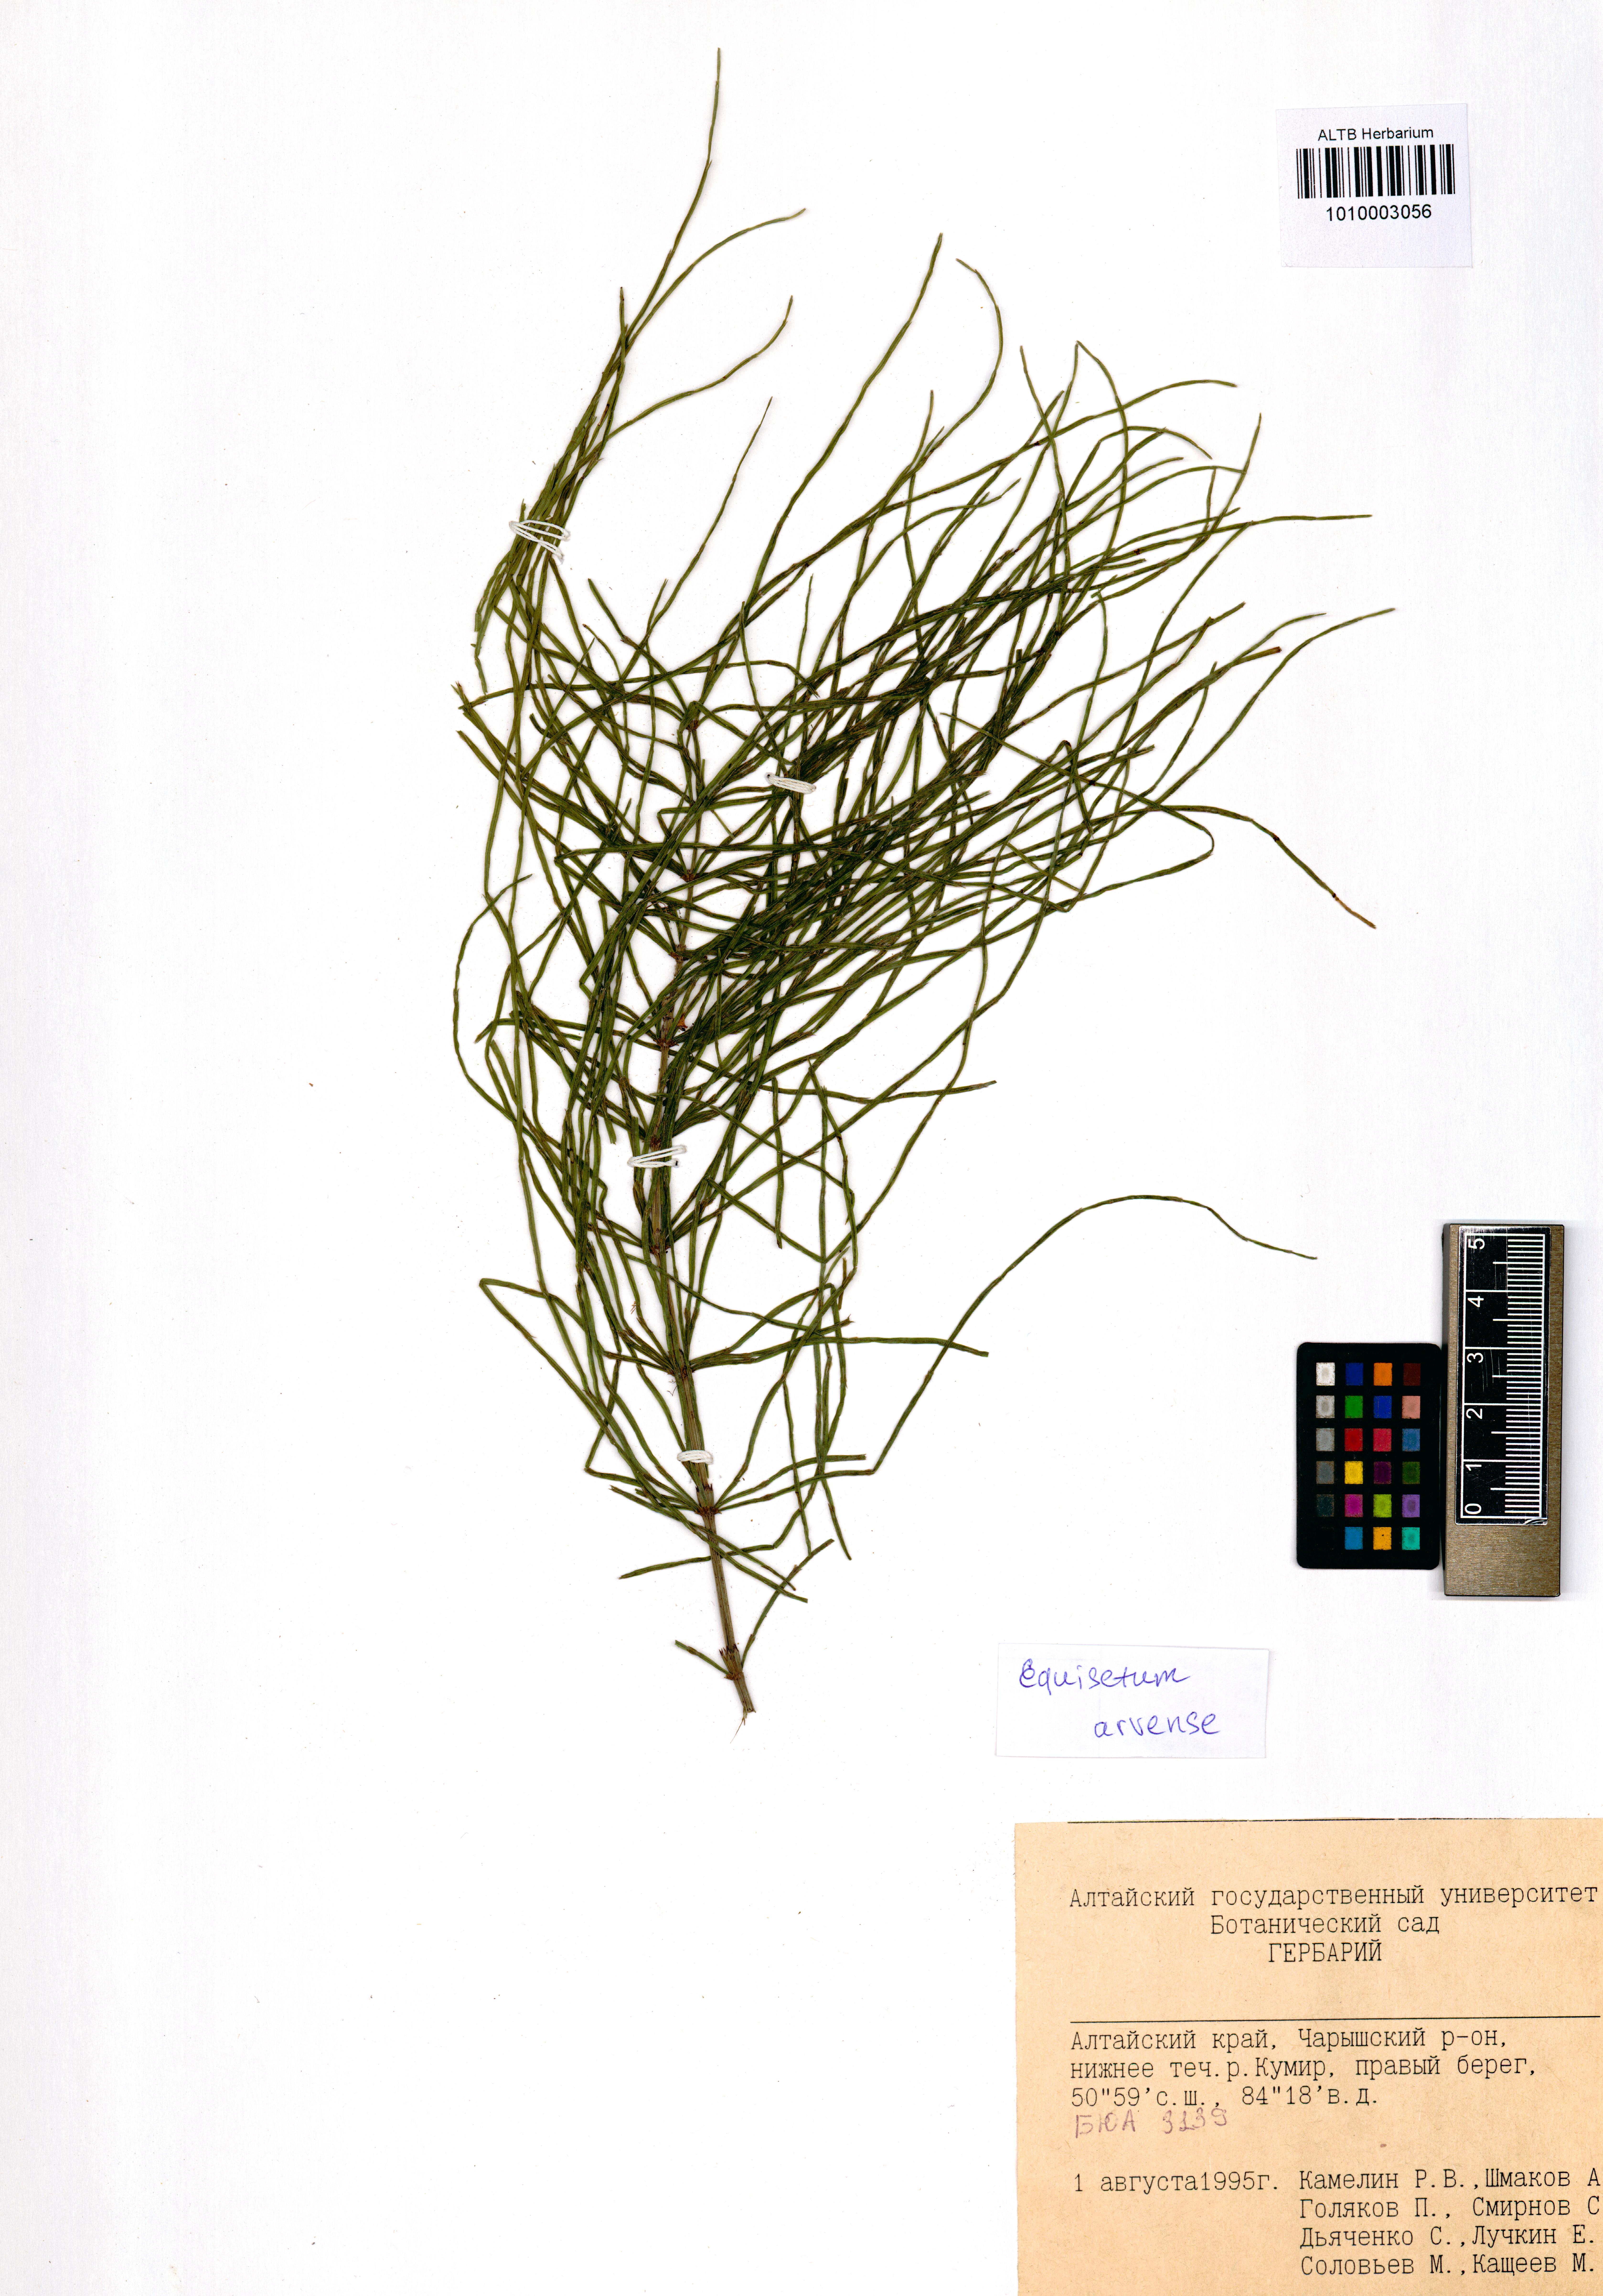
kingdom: Plantae
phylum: Tracheophyta
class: Polypodiopsida
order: Equisetales
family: Equisetaceae
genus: Equisetum
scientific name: Equisetum arvense
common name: Field horsetail
